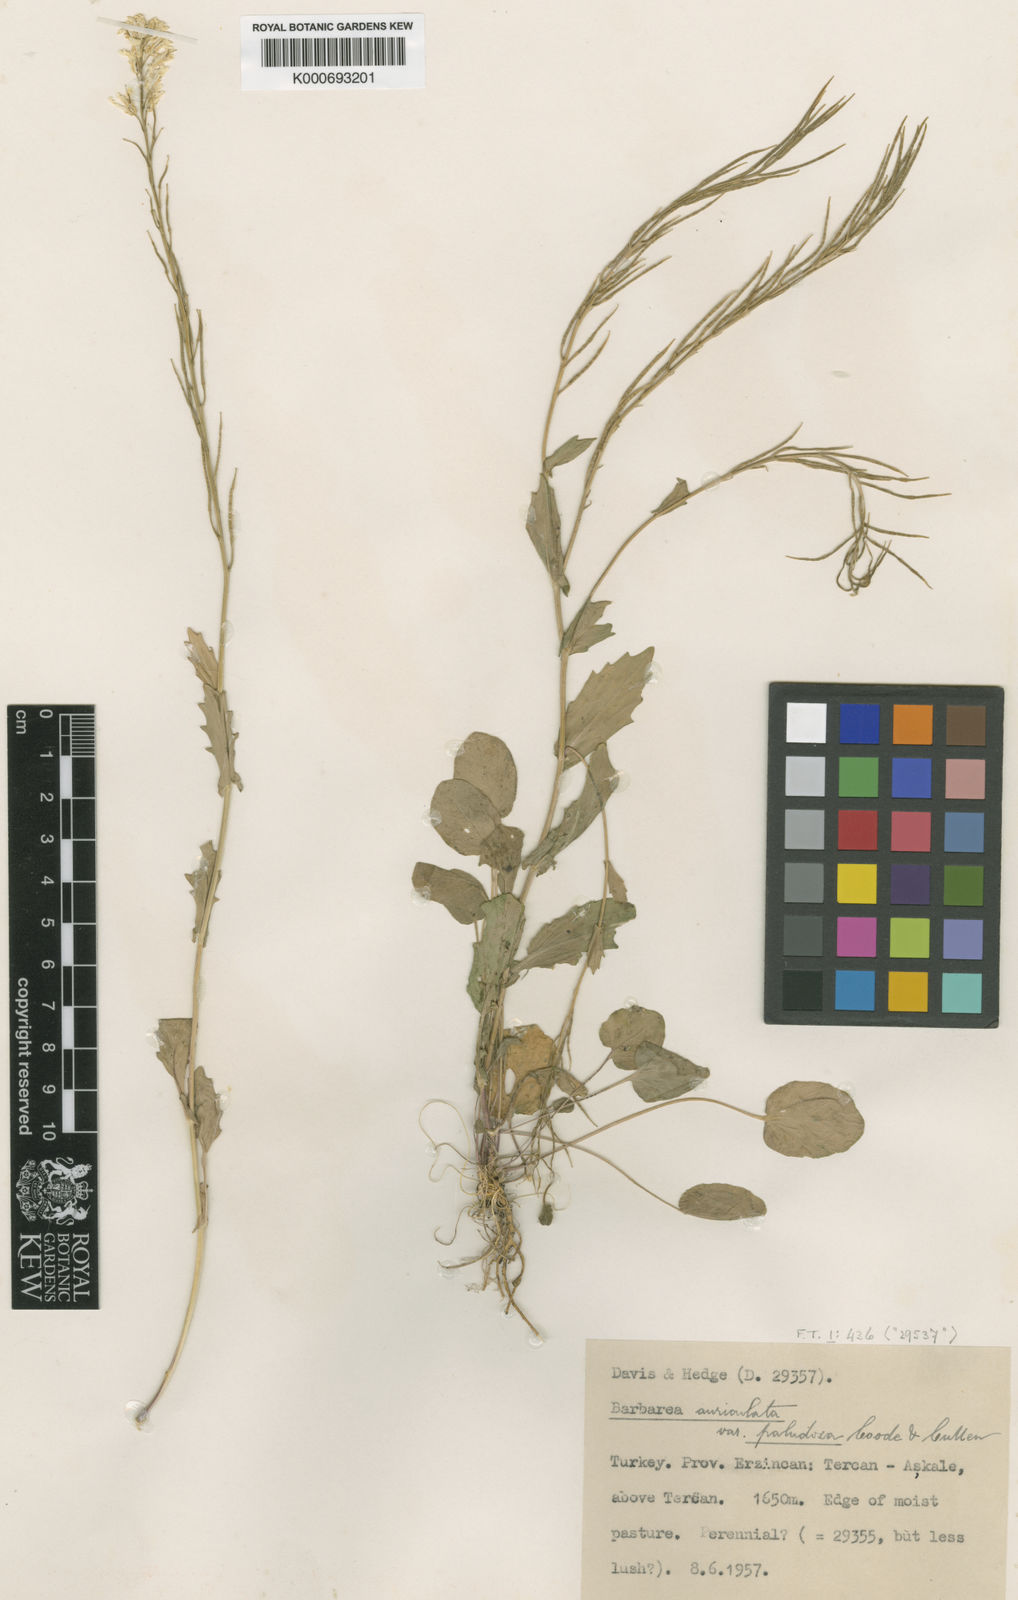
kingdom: Plantae
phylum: Tracheophyta
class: Magnoliopsida
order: Brassicales
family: Brassicaceae
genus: Barbarea
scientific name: Barbarea auriculata
